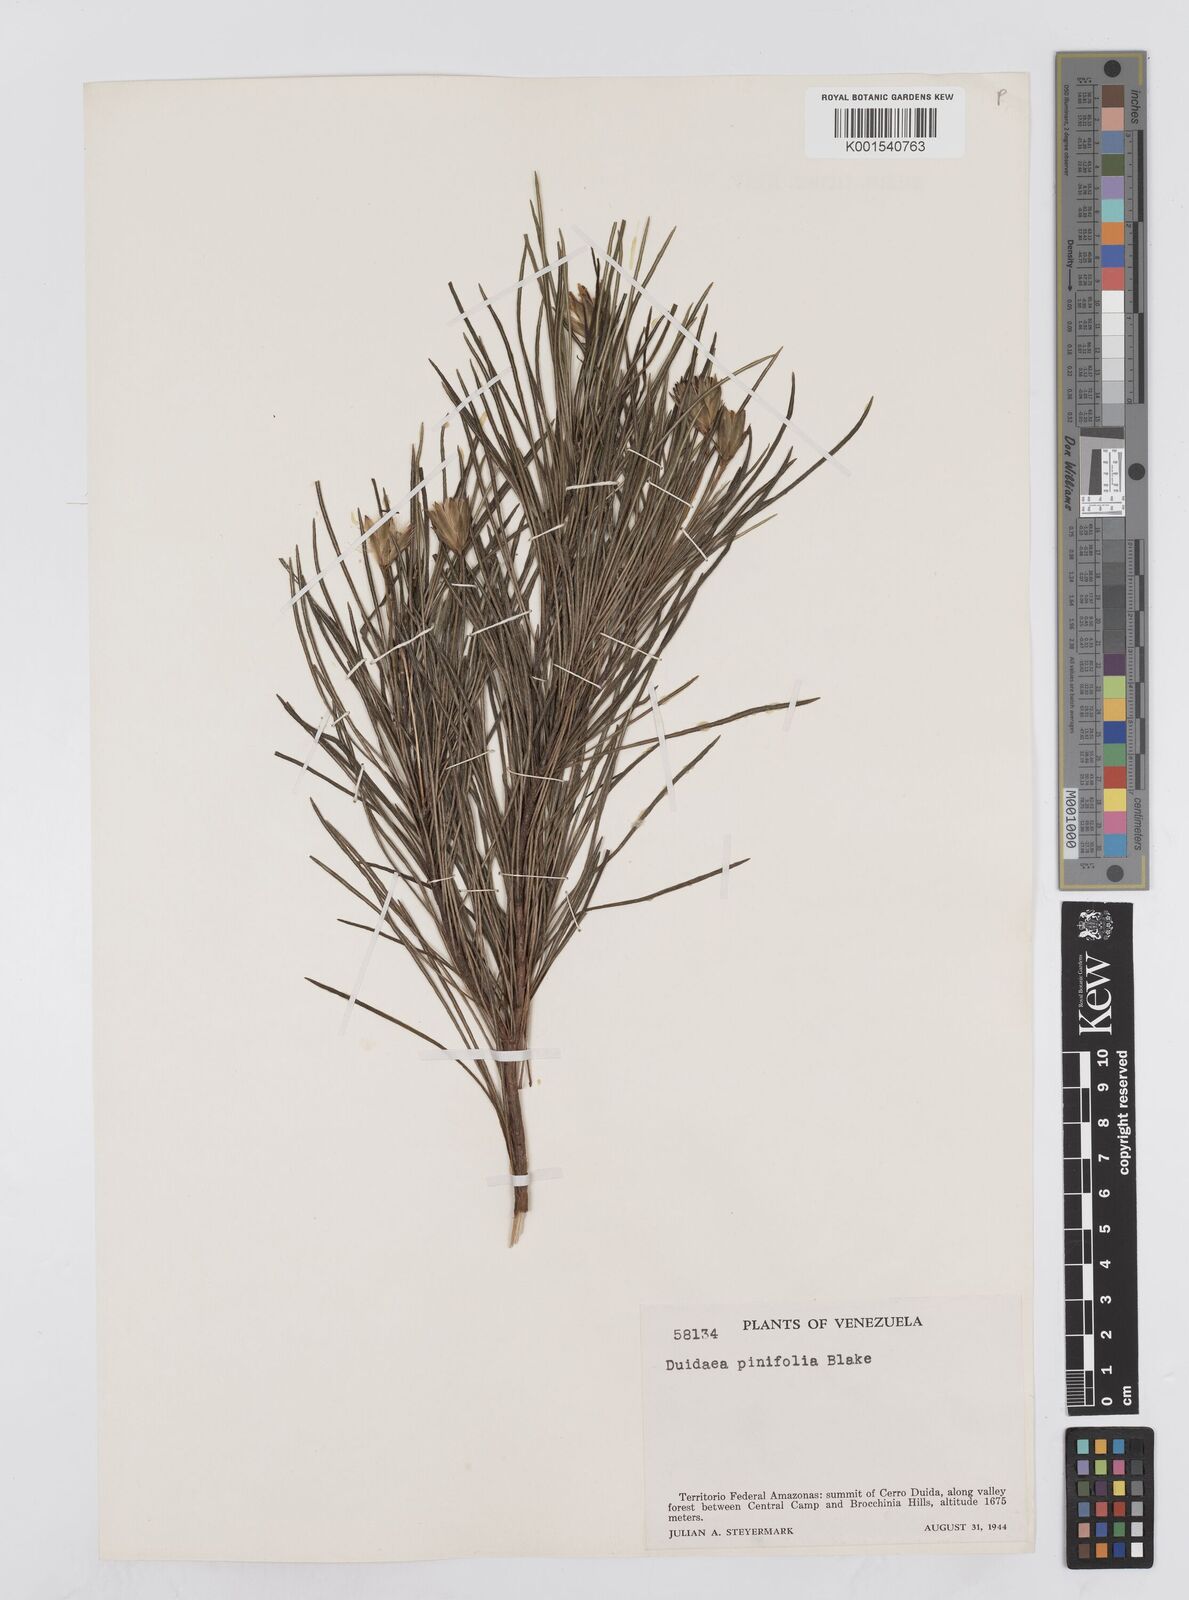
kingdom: Plantae
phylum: Tracheophyta
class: Magnoliopsida
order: Asterales
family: Asteraceae
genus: Duidaea
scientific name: Duidaea pinifolia
